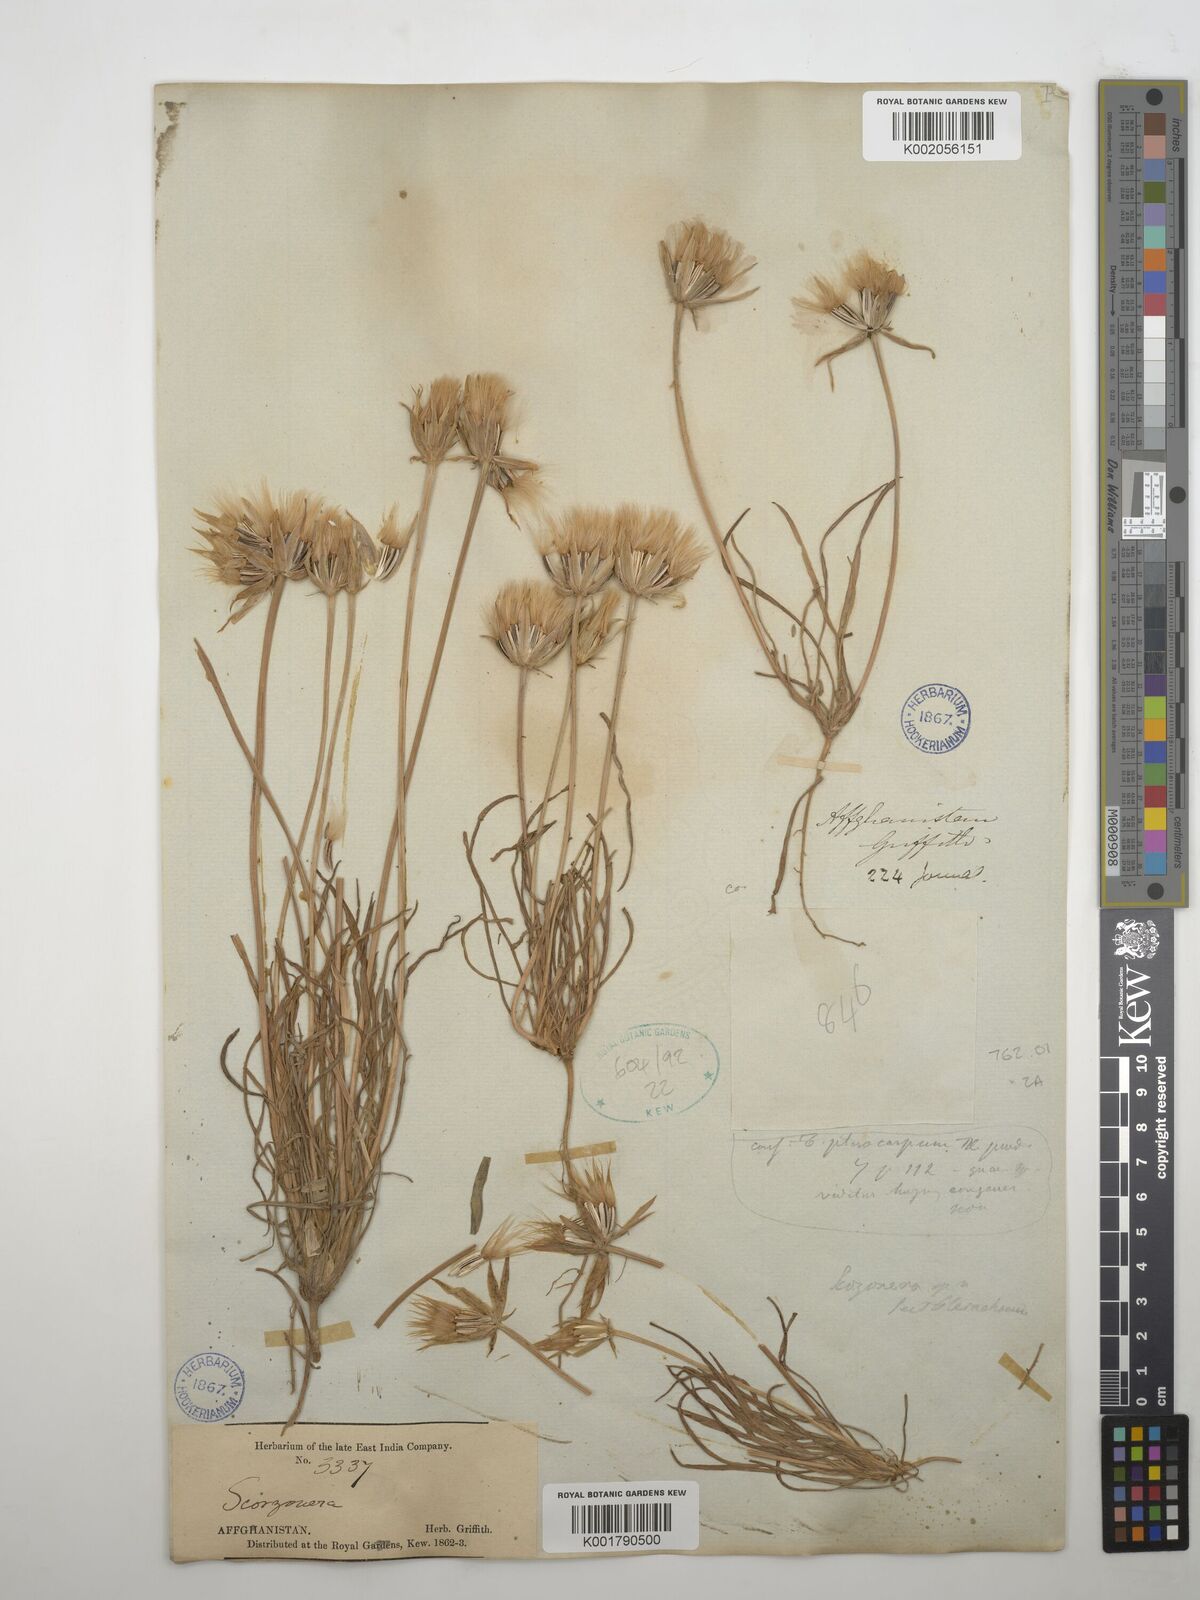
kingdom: Plantae
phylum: Tracheophyta
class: Magnoliopsida
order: Asterales
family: Asteraceae
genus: Pterachaenia
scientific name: Pterachaenia stewartii
